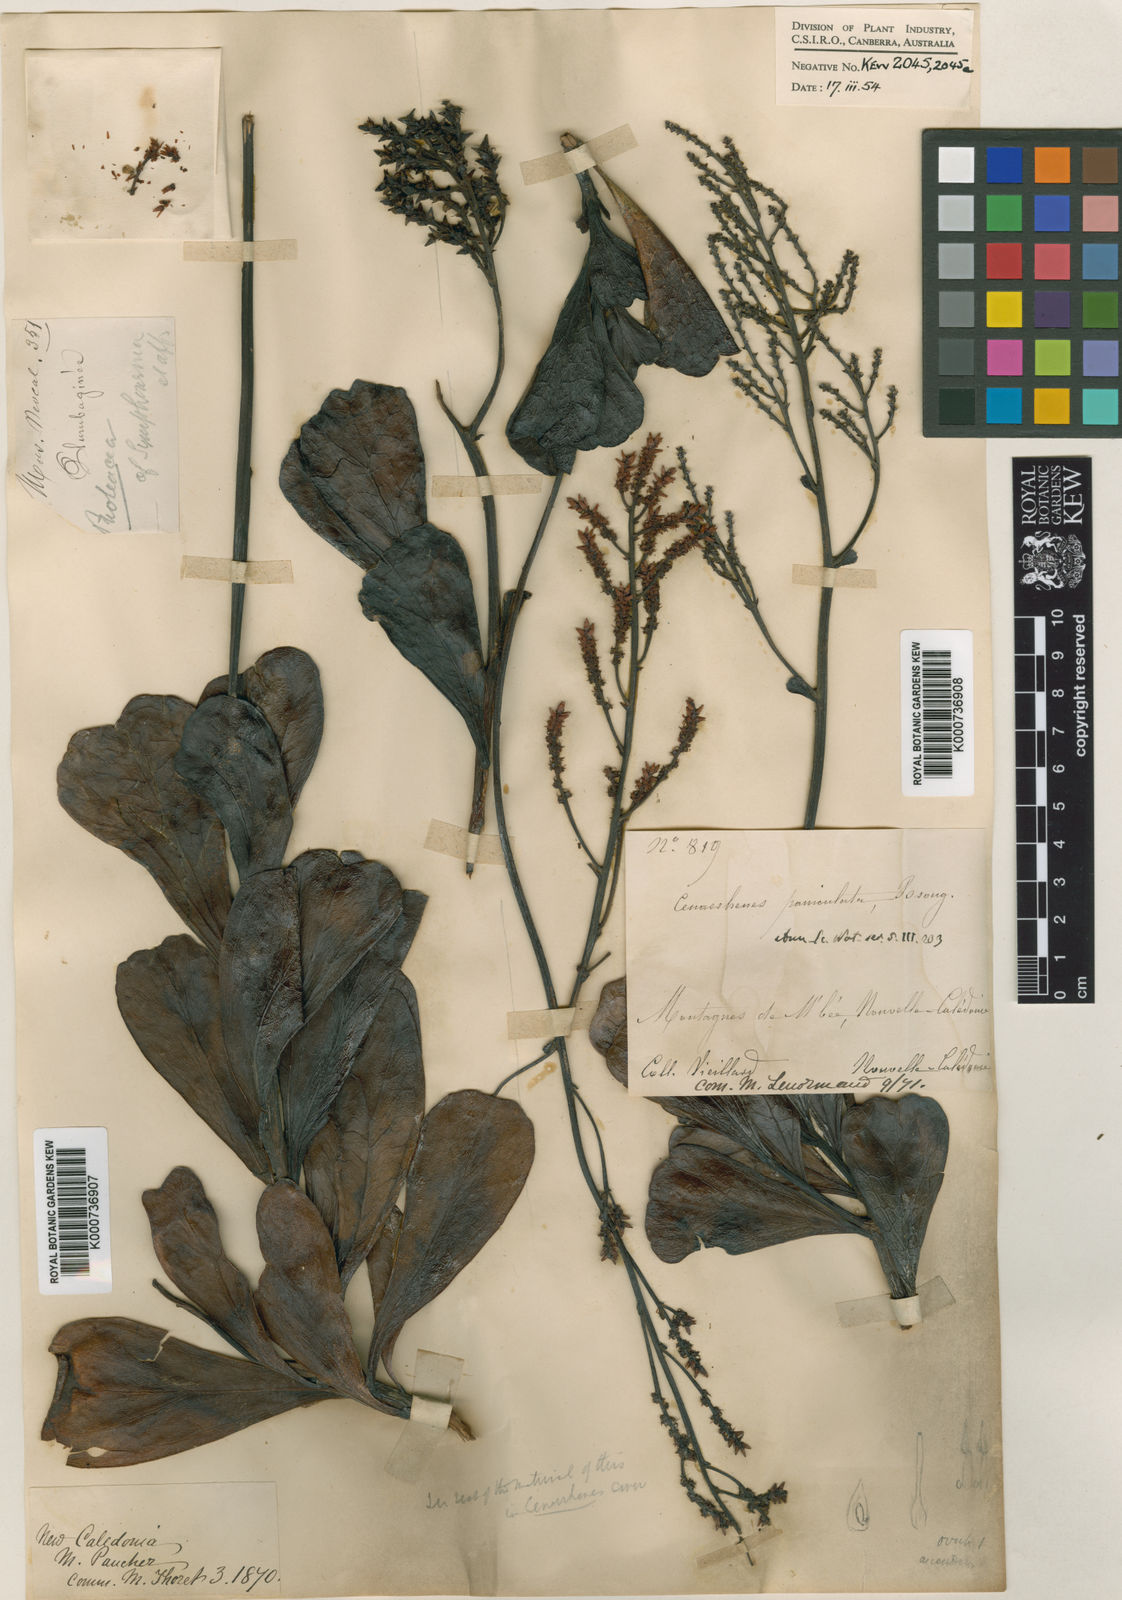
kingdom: Plantae
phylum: Tracheophyta
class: Magnoliopsida
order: Proteales
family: Proteaceae
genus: Beaupreopsis
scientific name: Beaupreopsis paniculata
